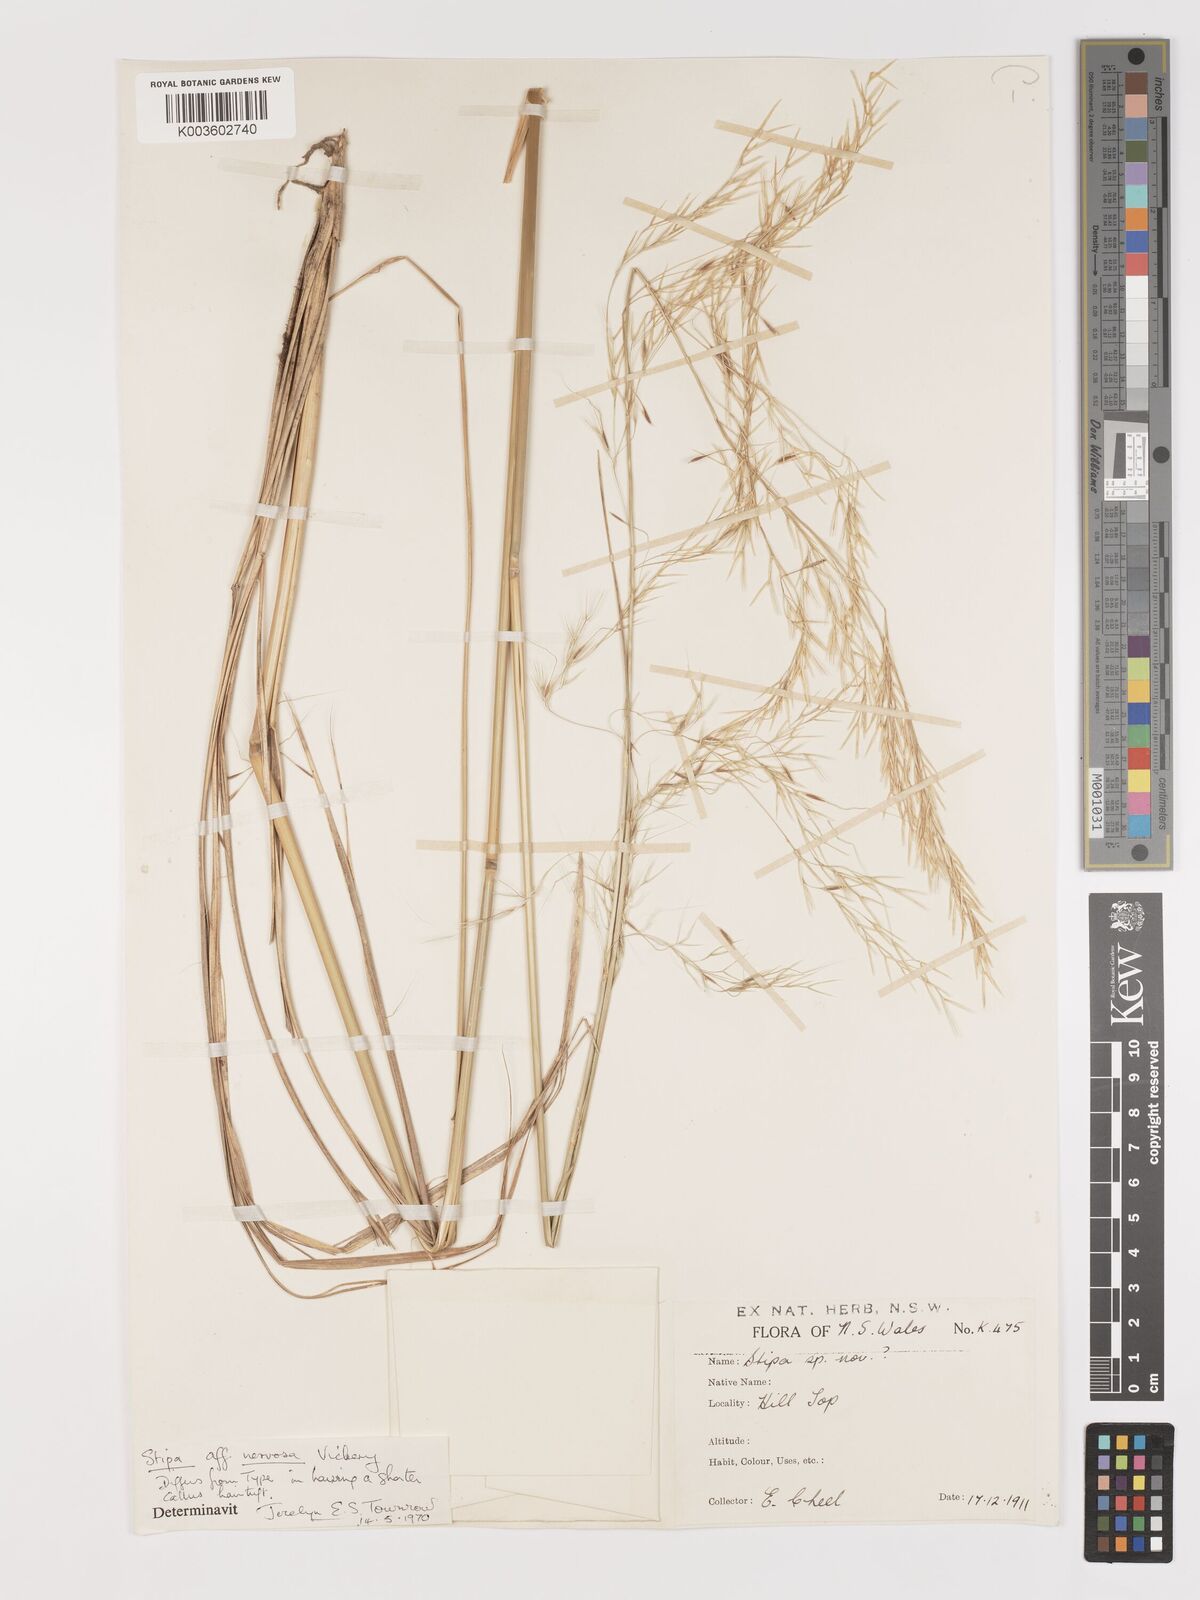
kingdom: Plantae
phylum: Tracheophyta
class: Liliopsida
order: Poales
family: Poaceae
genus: Austrostipa
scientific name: Austrostipa rudis
